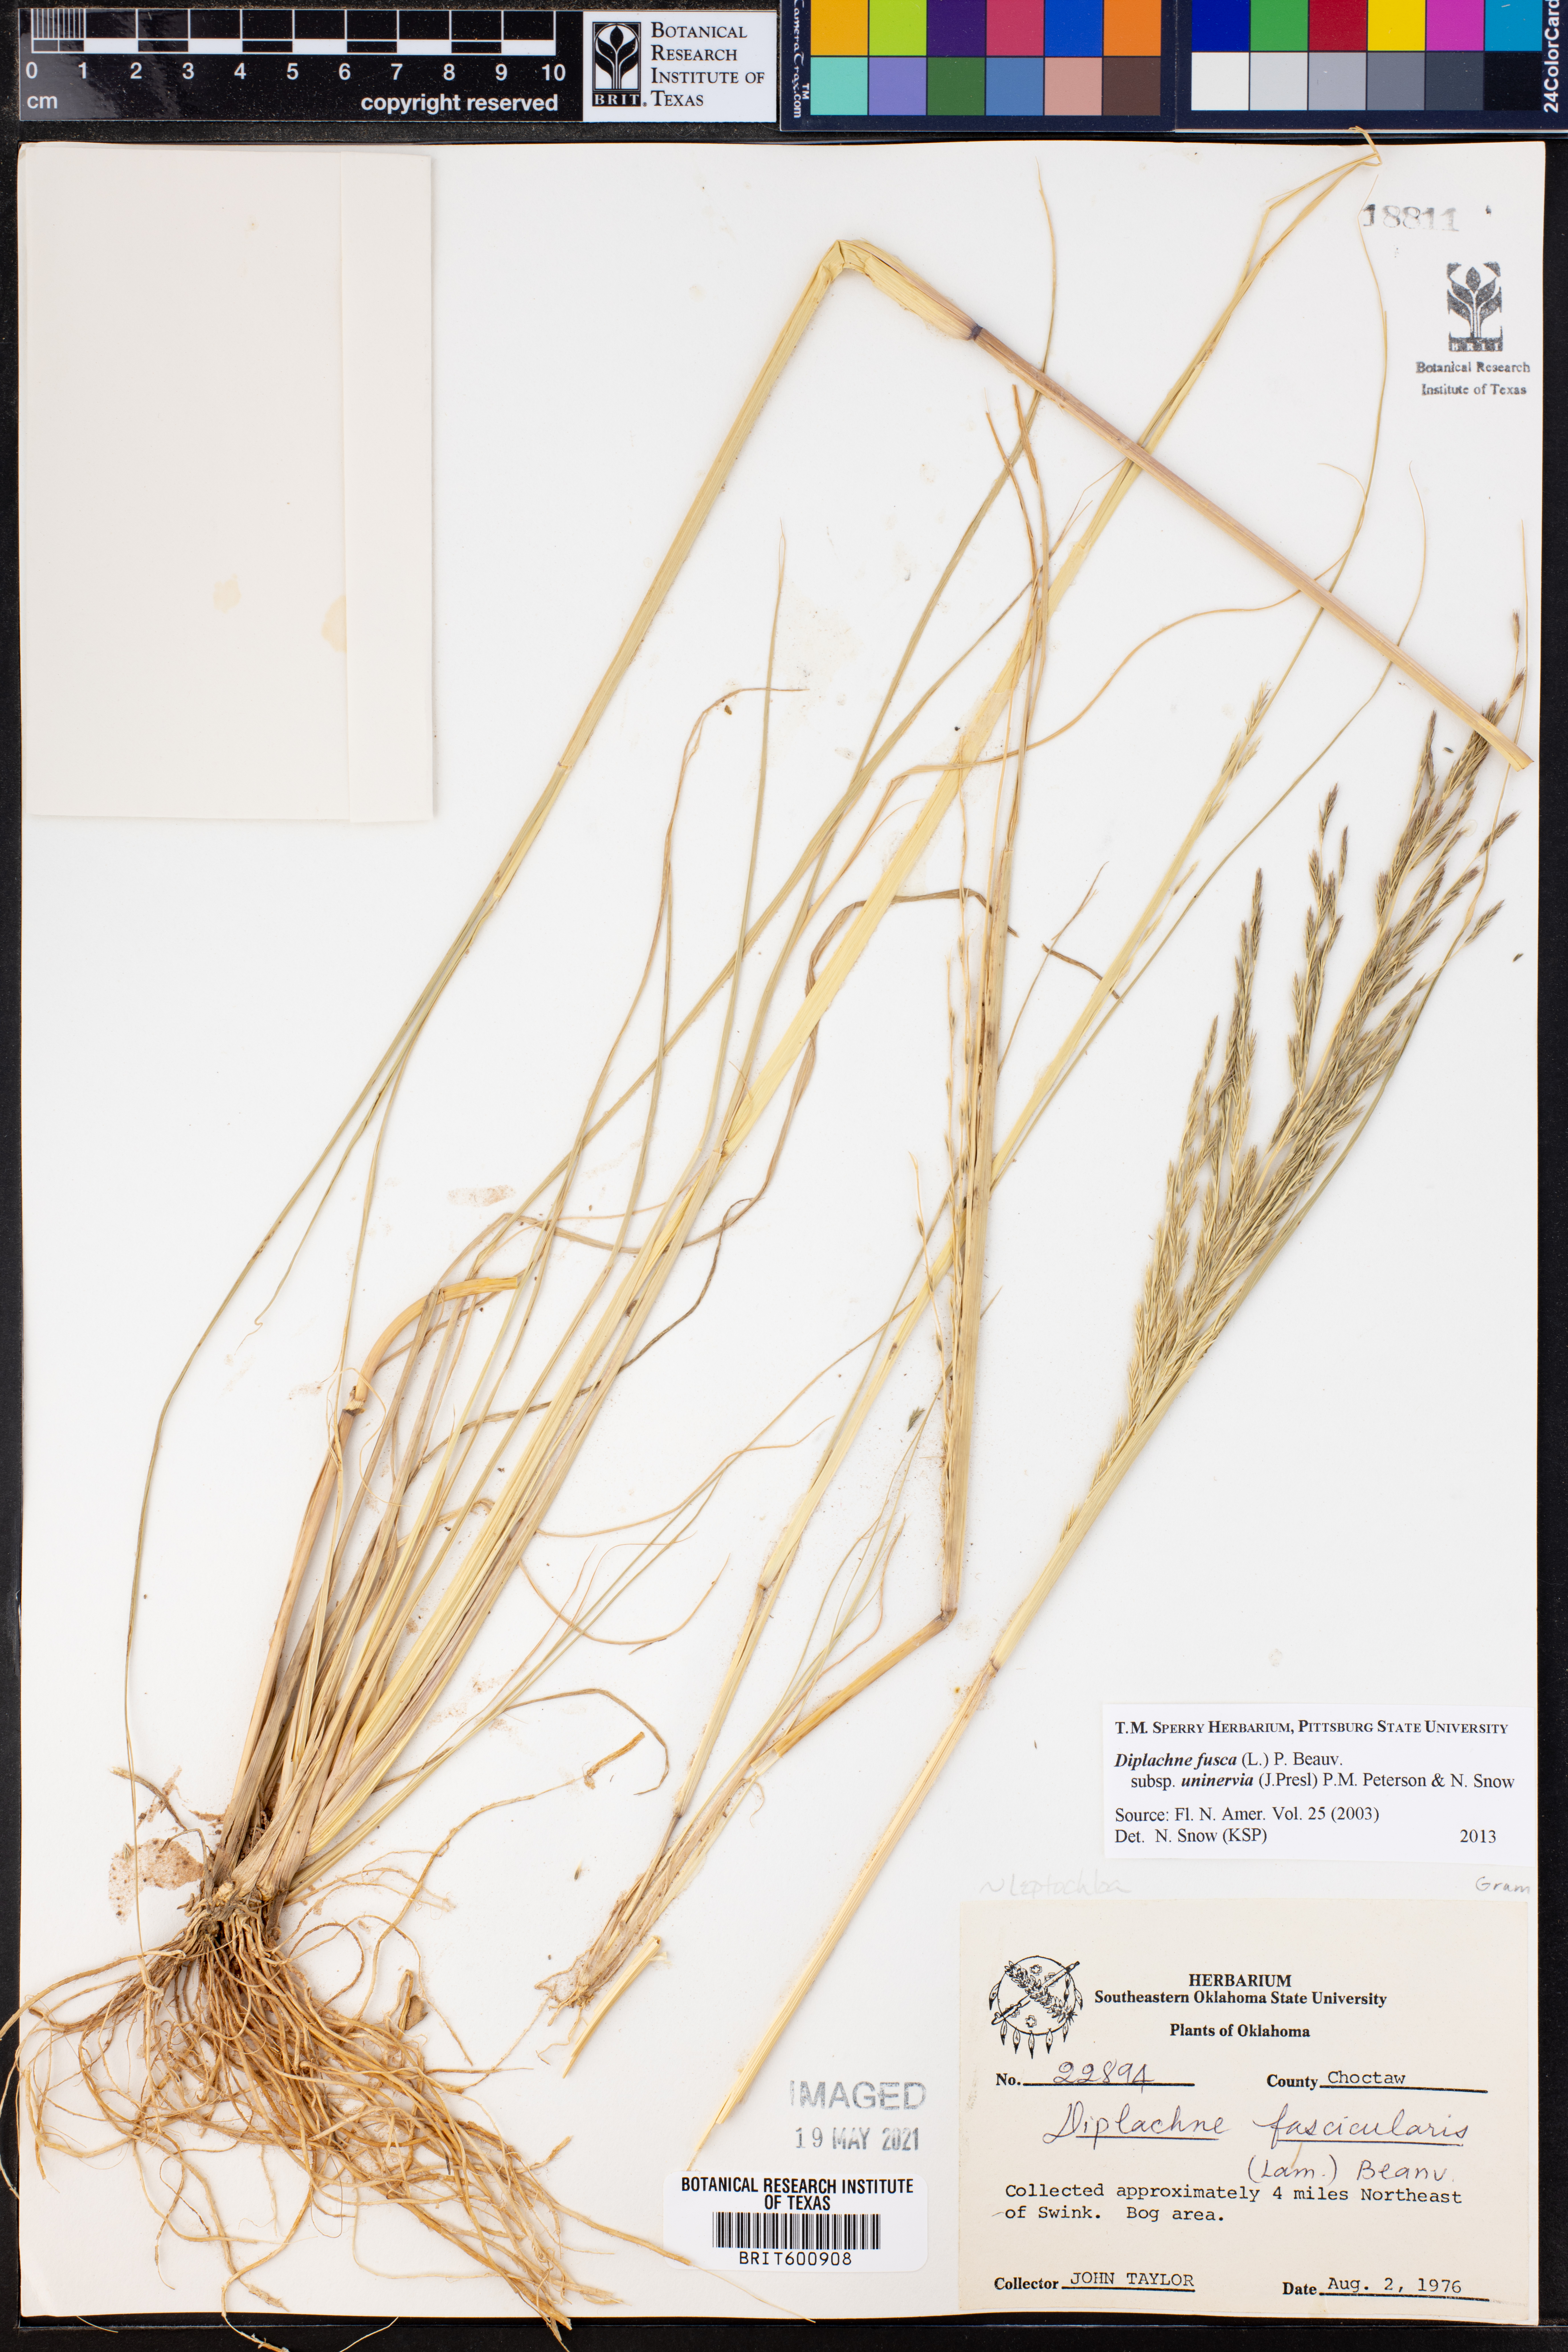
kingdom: Plantae
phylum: Tracheophyta
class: Liliopsida
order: Poales
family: Poaceae
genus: Diplachne
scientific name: Diplachne fusca
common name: Brown beetle grass
